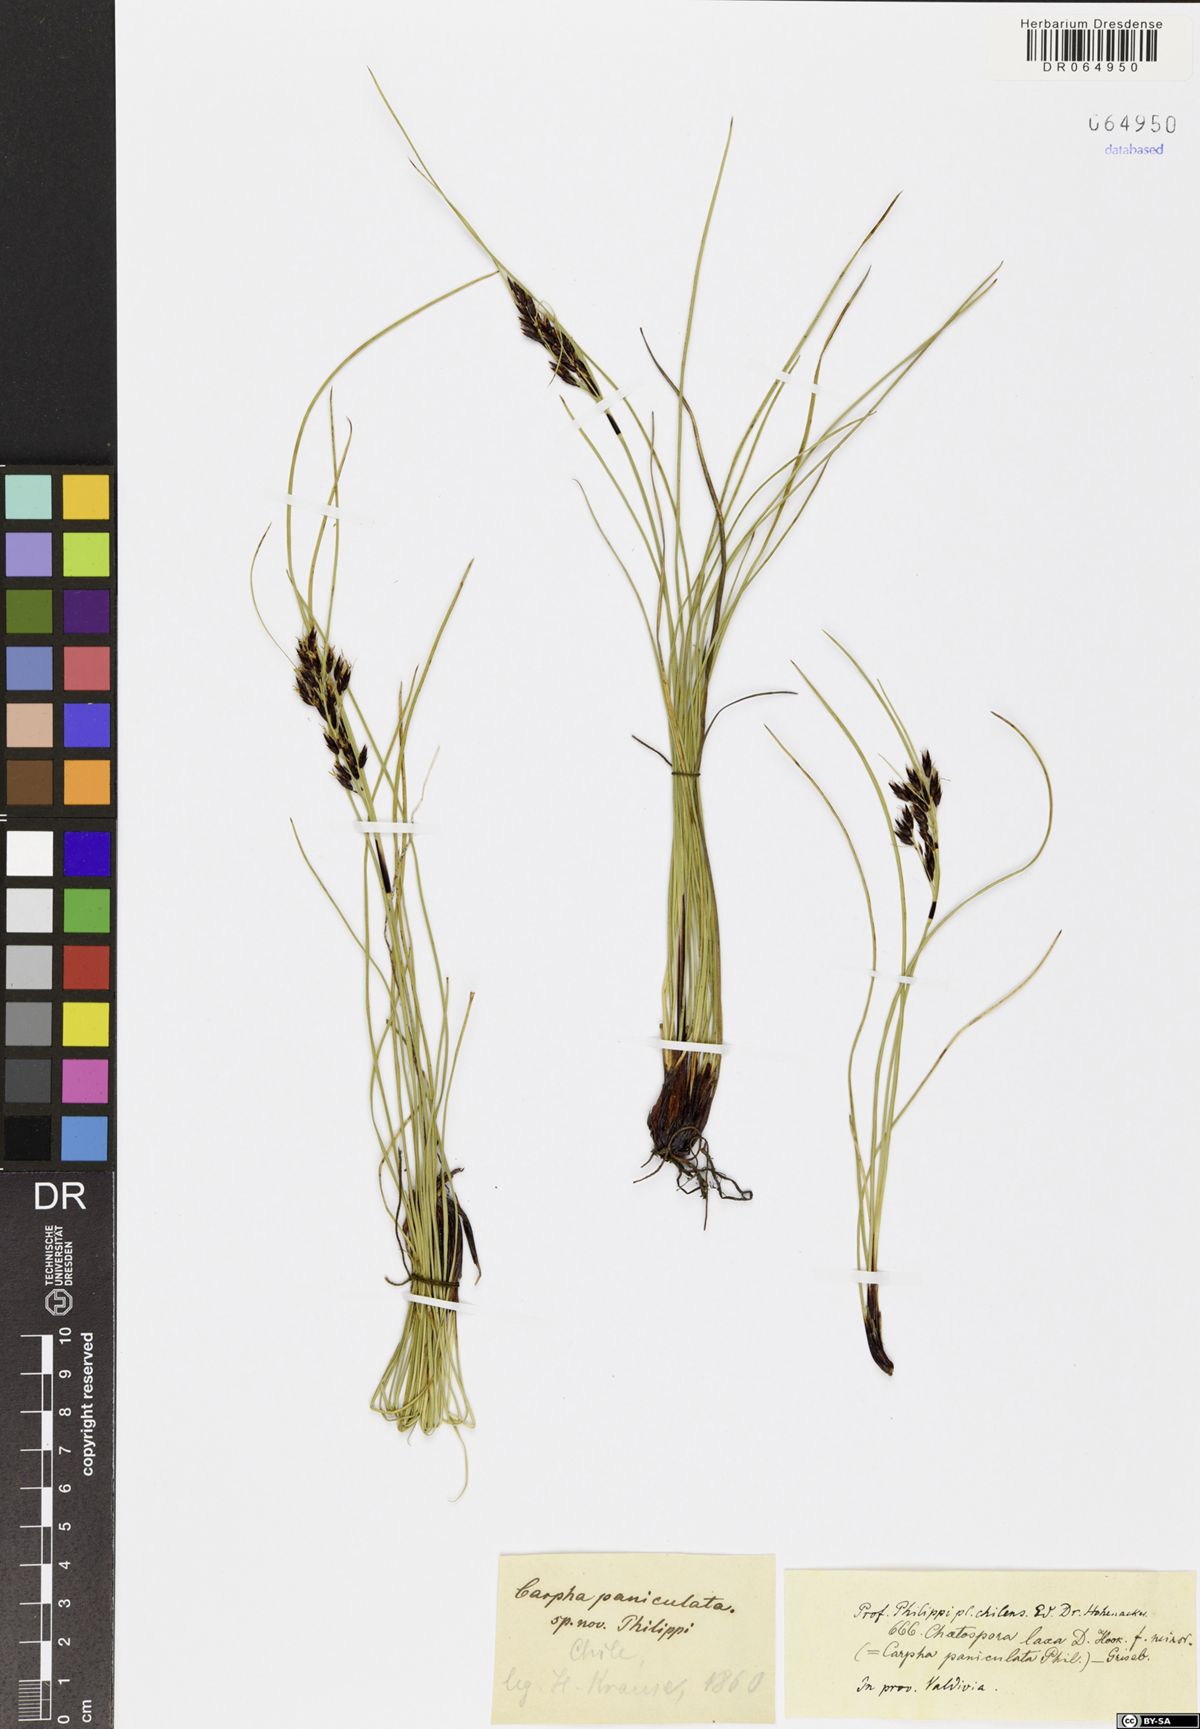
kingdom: Plantae
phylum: Tracheophyta
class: Liliopsida
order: Poales
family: Cyperaceae
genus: Schoenus
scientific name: Schoenus rhynchosporoides
